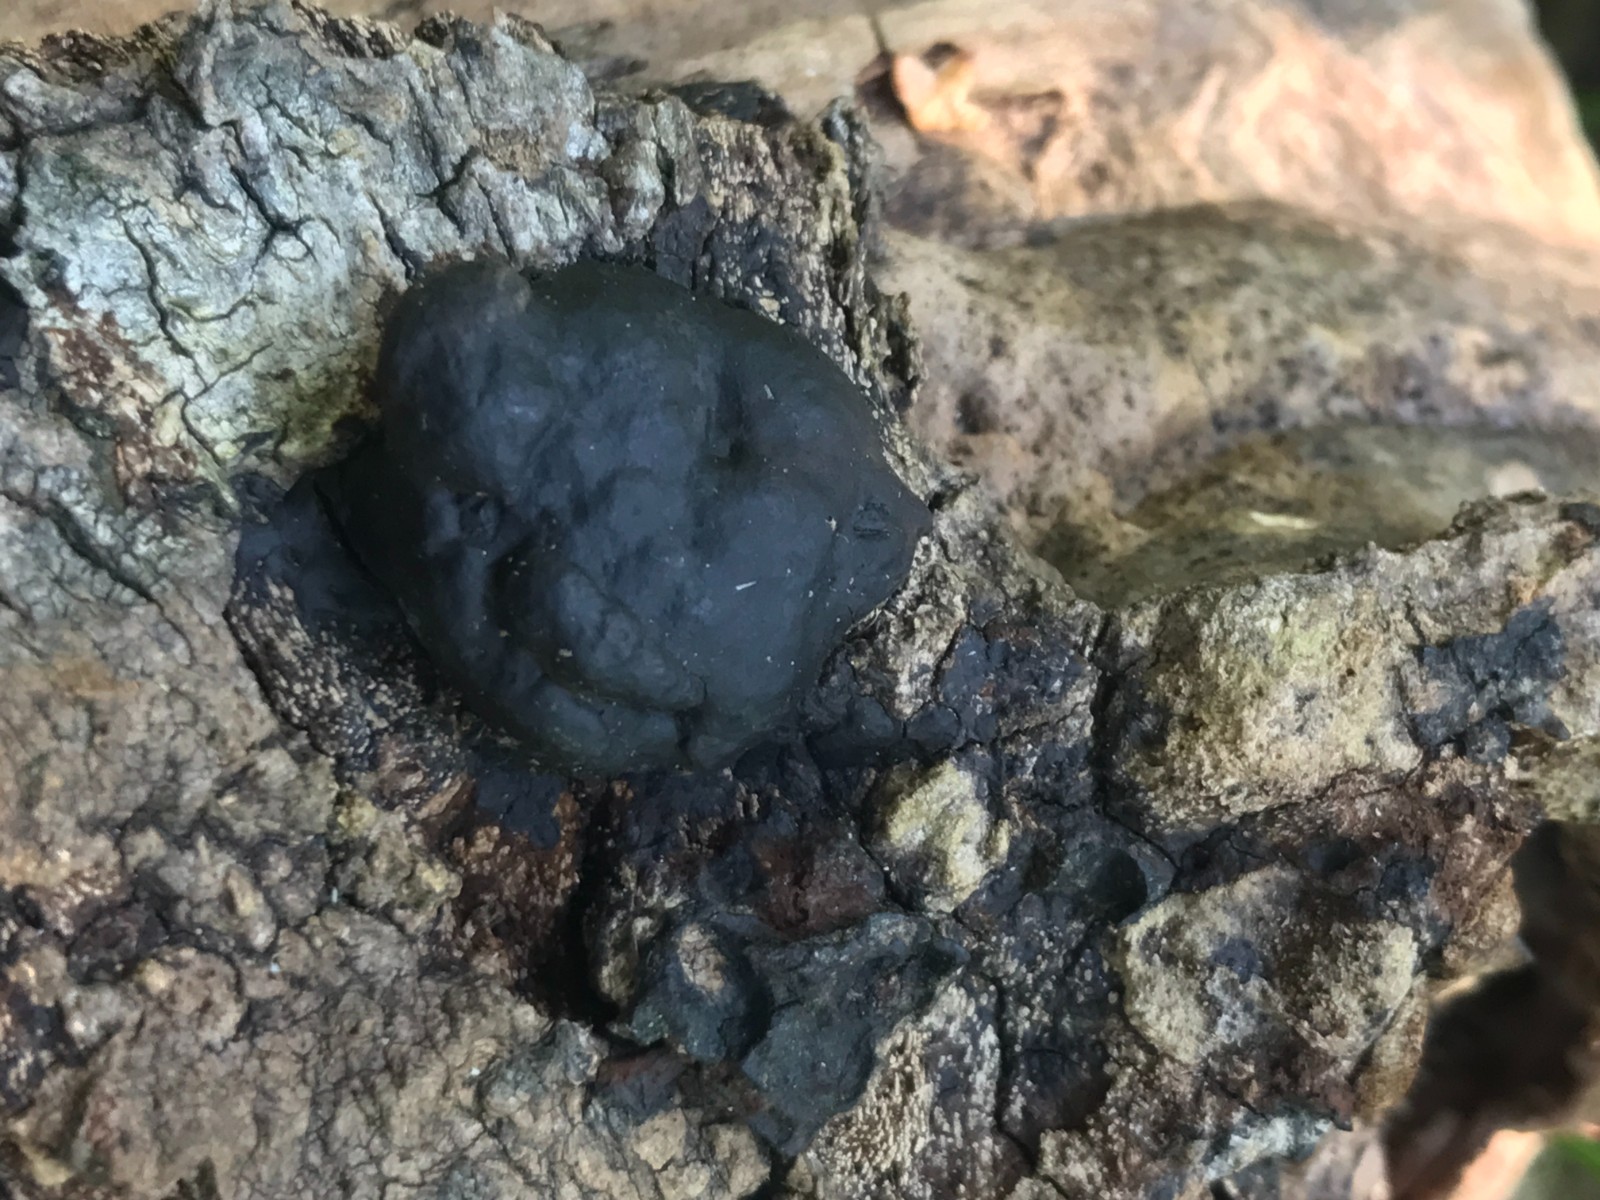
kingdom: Fungi
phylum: Basidiomycota
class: Agaricomycetes
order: Polyporales
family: Polyporaceae
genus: Fomes
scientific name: Fomes fomentarius
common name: tøndersvamp
